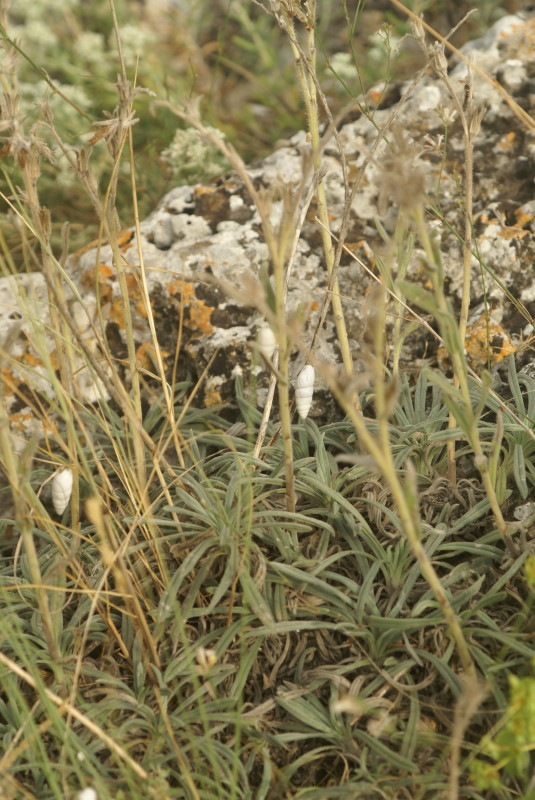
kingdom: Plantae
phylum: Tracheophyta
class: Magnoliopsida
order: Boraginales
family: Boraginaceae
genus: Onosma
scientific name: Onosma cinerea
